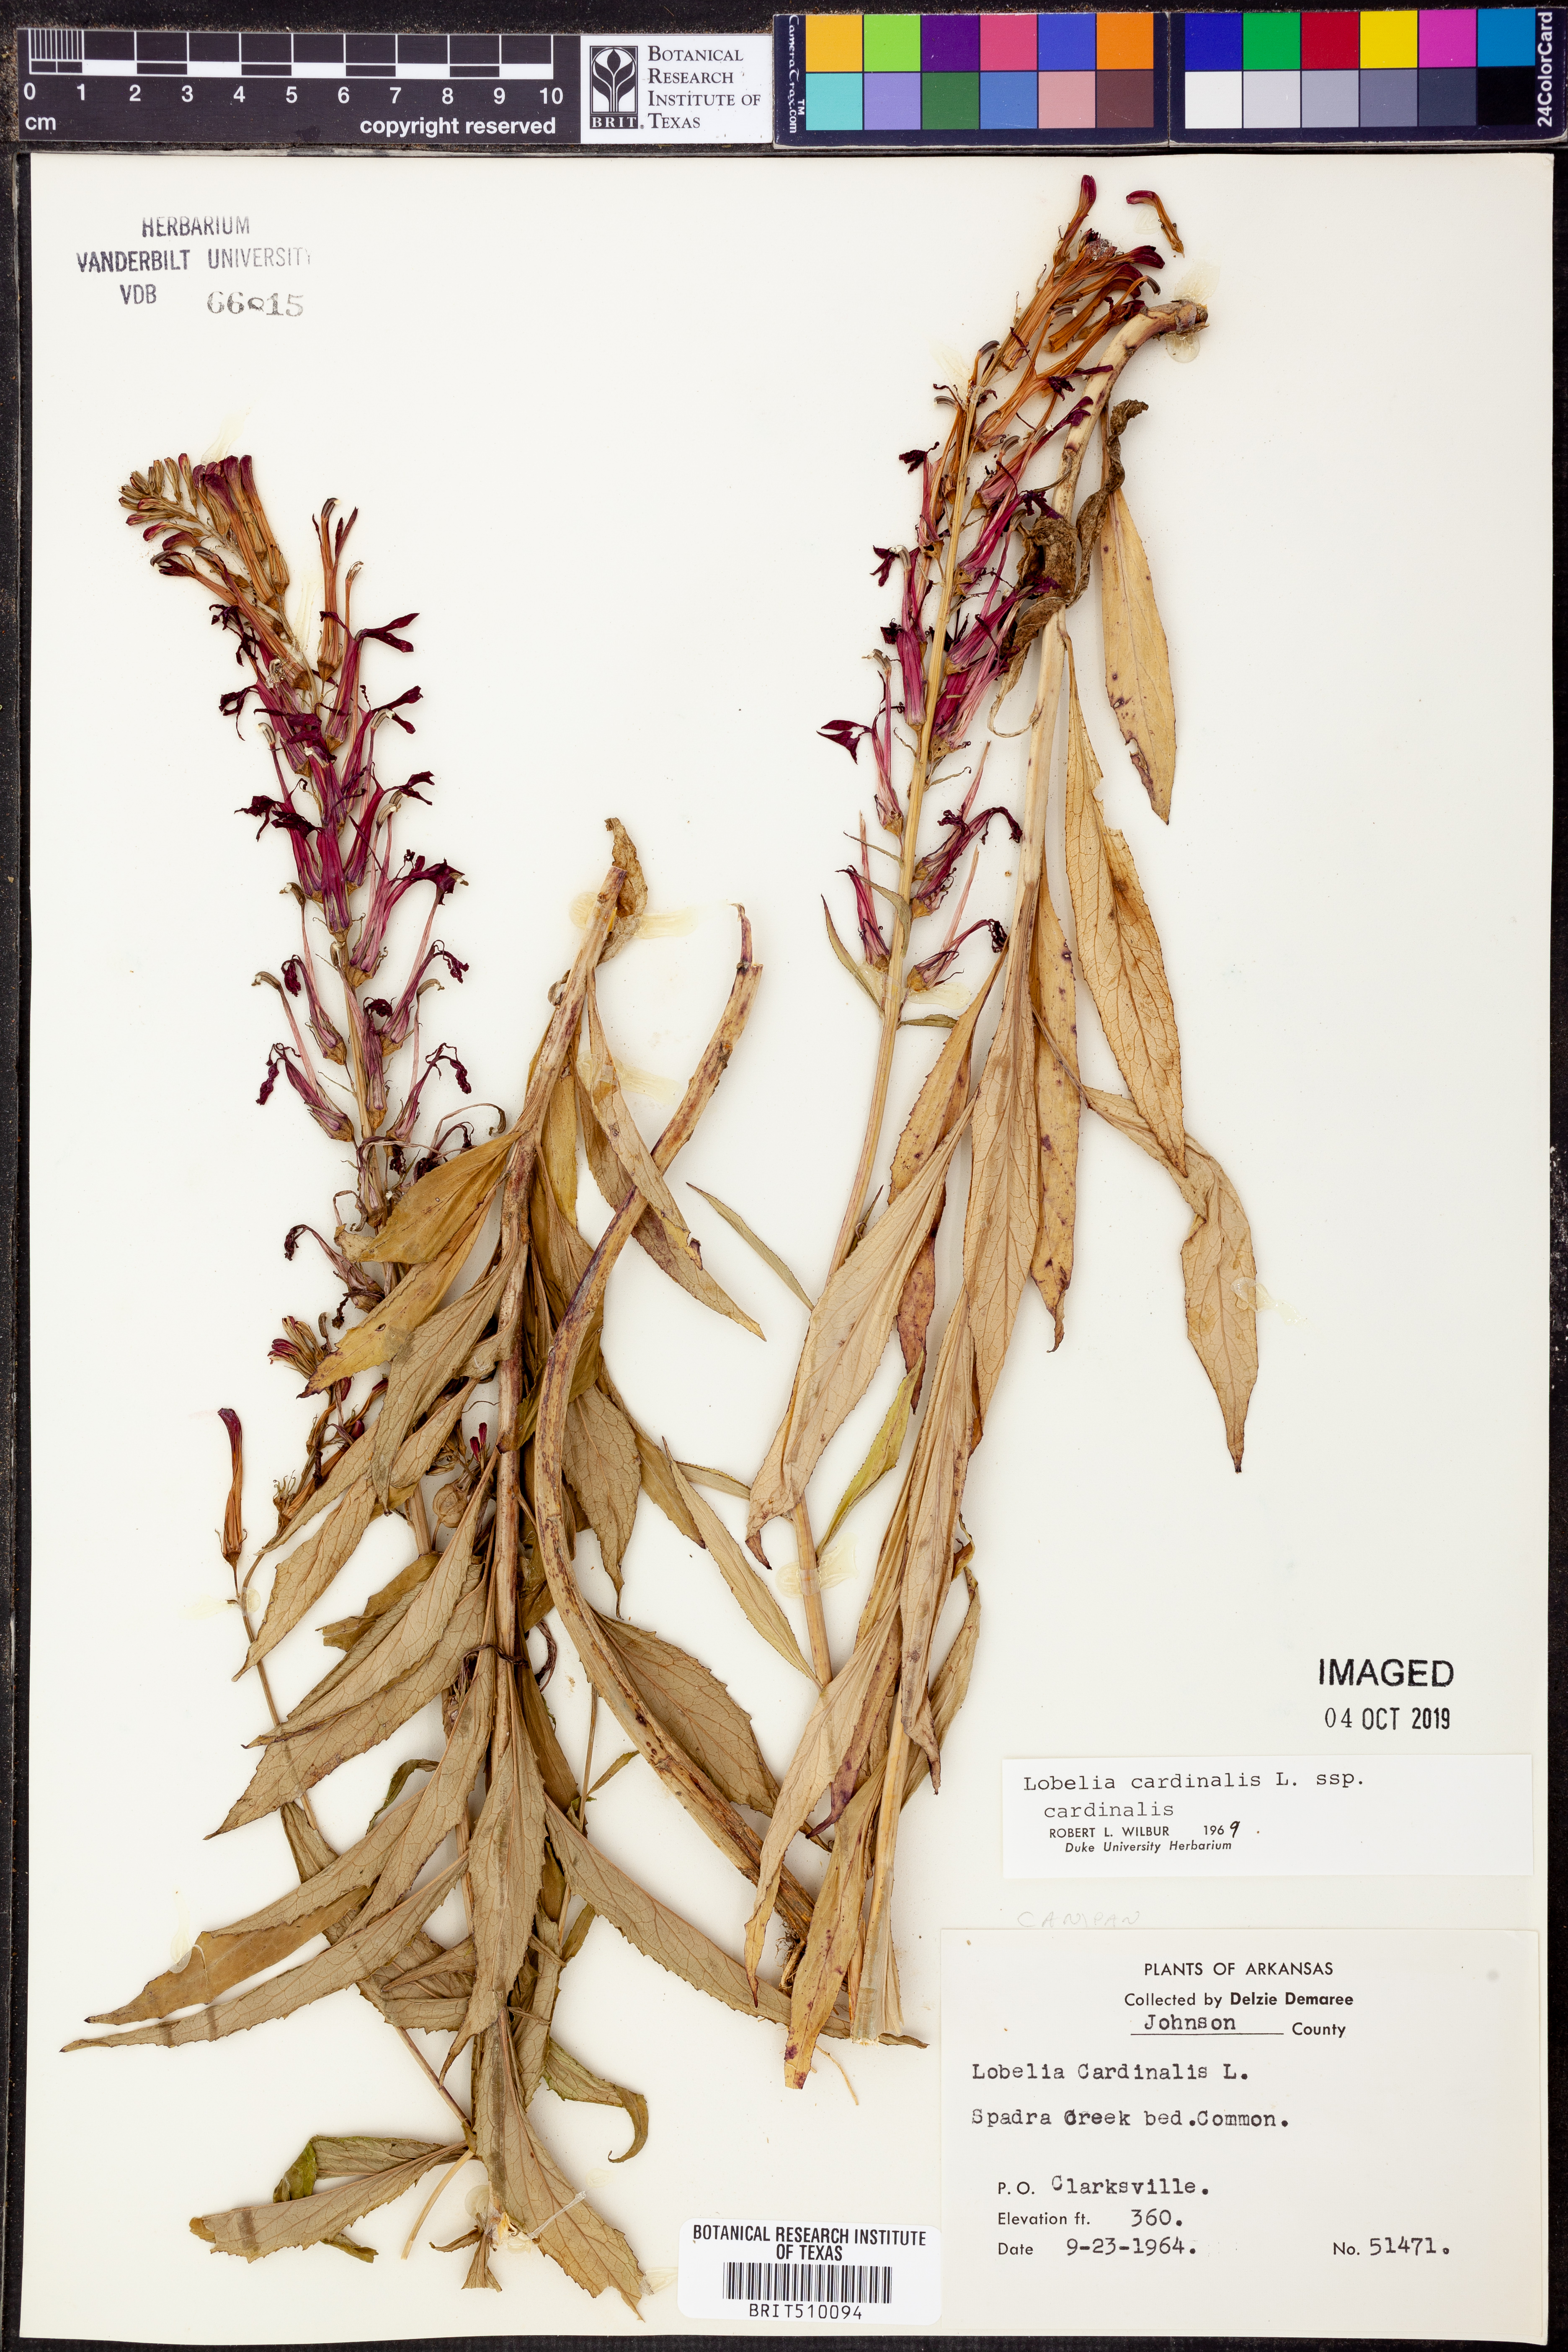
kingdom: Plantae
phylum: Tracheophyta
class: Magnoliopsida
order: Asterales
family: Campanulaceae
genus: Lobelia
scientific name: Lobelia cardinalis
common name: Cardinal flower
